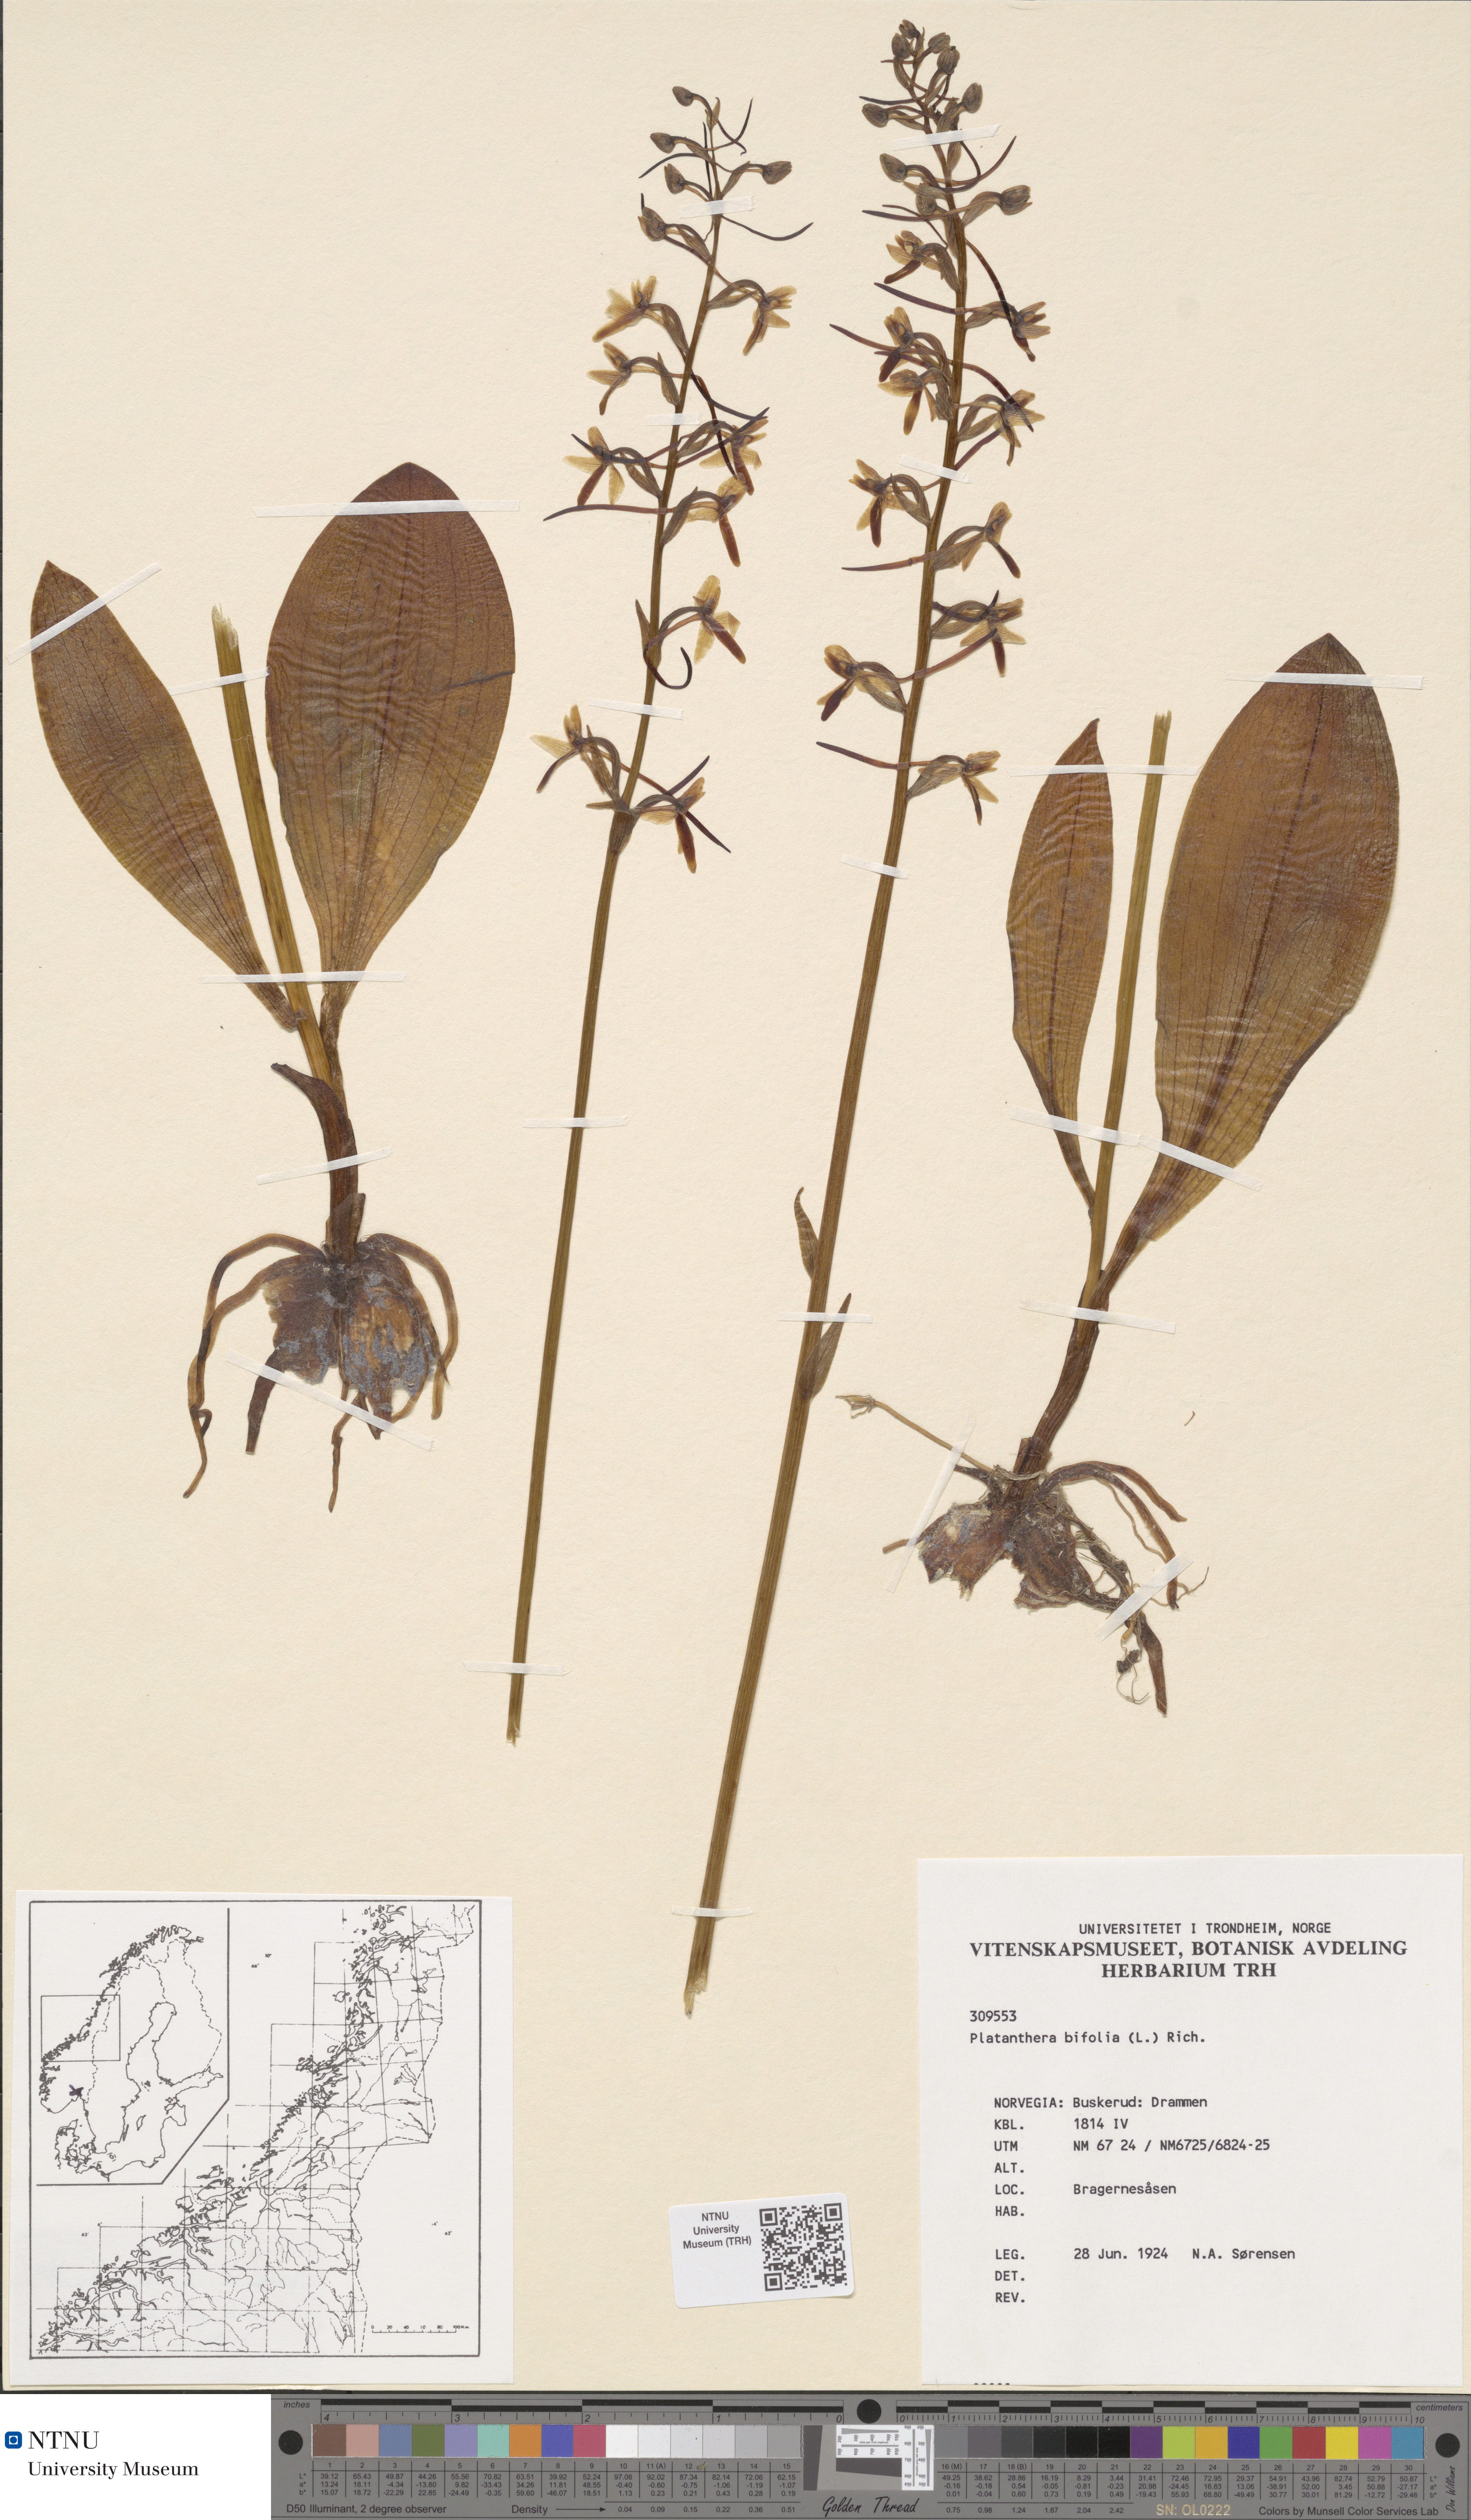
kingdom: Plantae
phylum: Tracheophyta
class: Liliopsida
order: Asparagales
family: Orchidaceae
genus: Platanthera
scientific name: Platanthera bifolia
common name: Lesser butterfly-orchid
